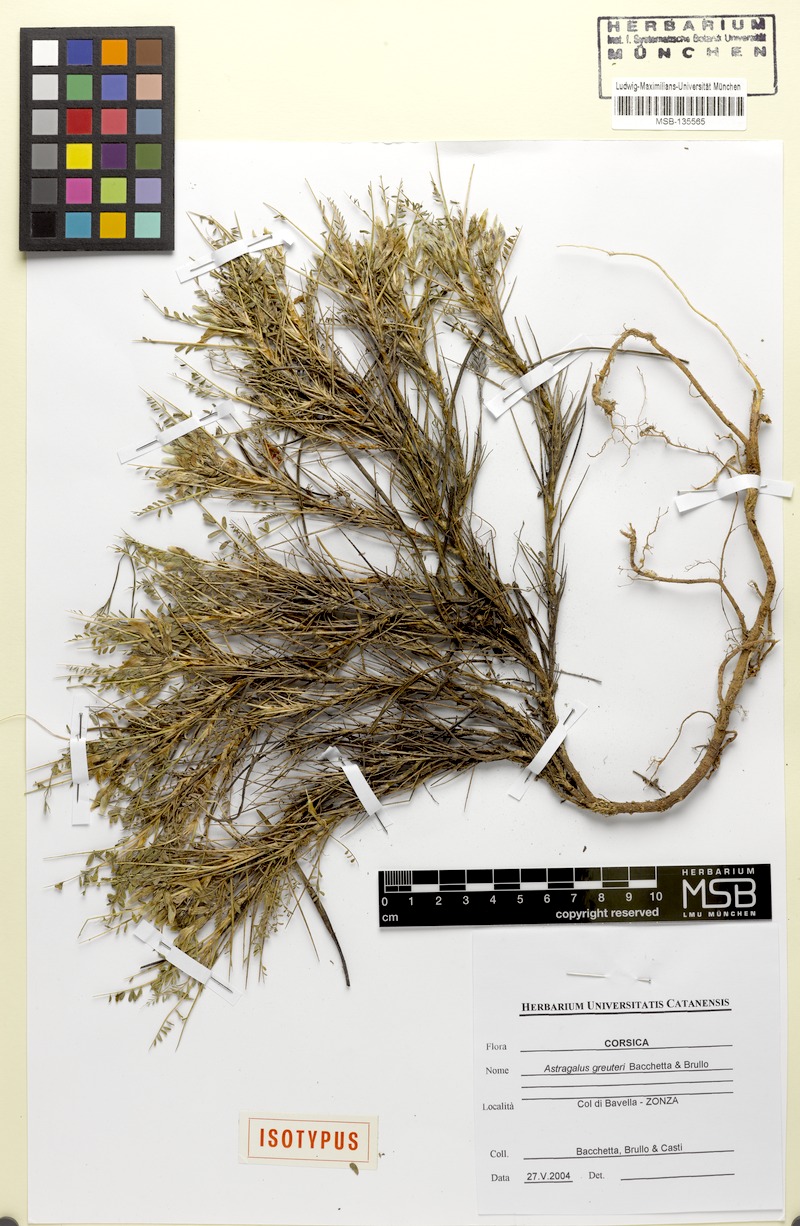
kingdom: Plantae
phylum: Tracheophyta
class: Magnoliopsida
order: Fabales
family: Fabaceae
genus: Astragalus
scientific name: Astragalus greuteri
